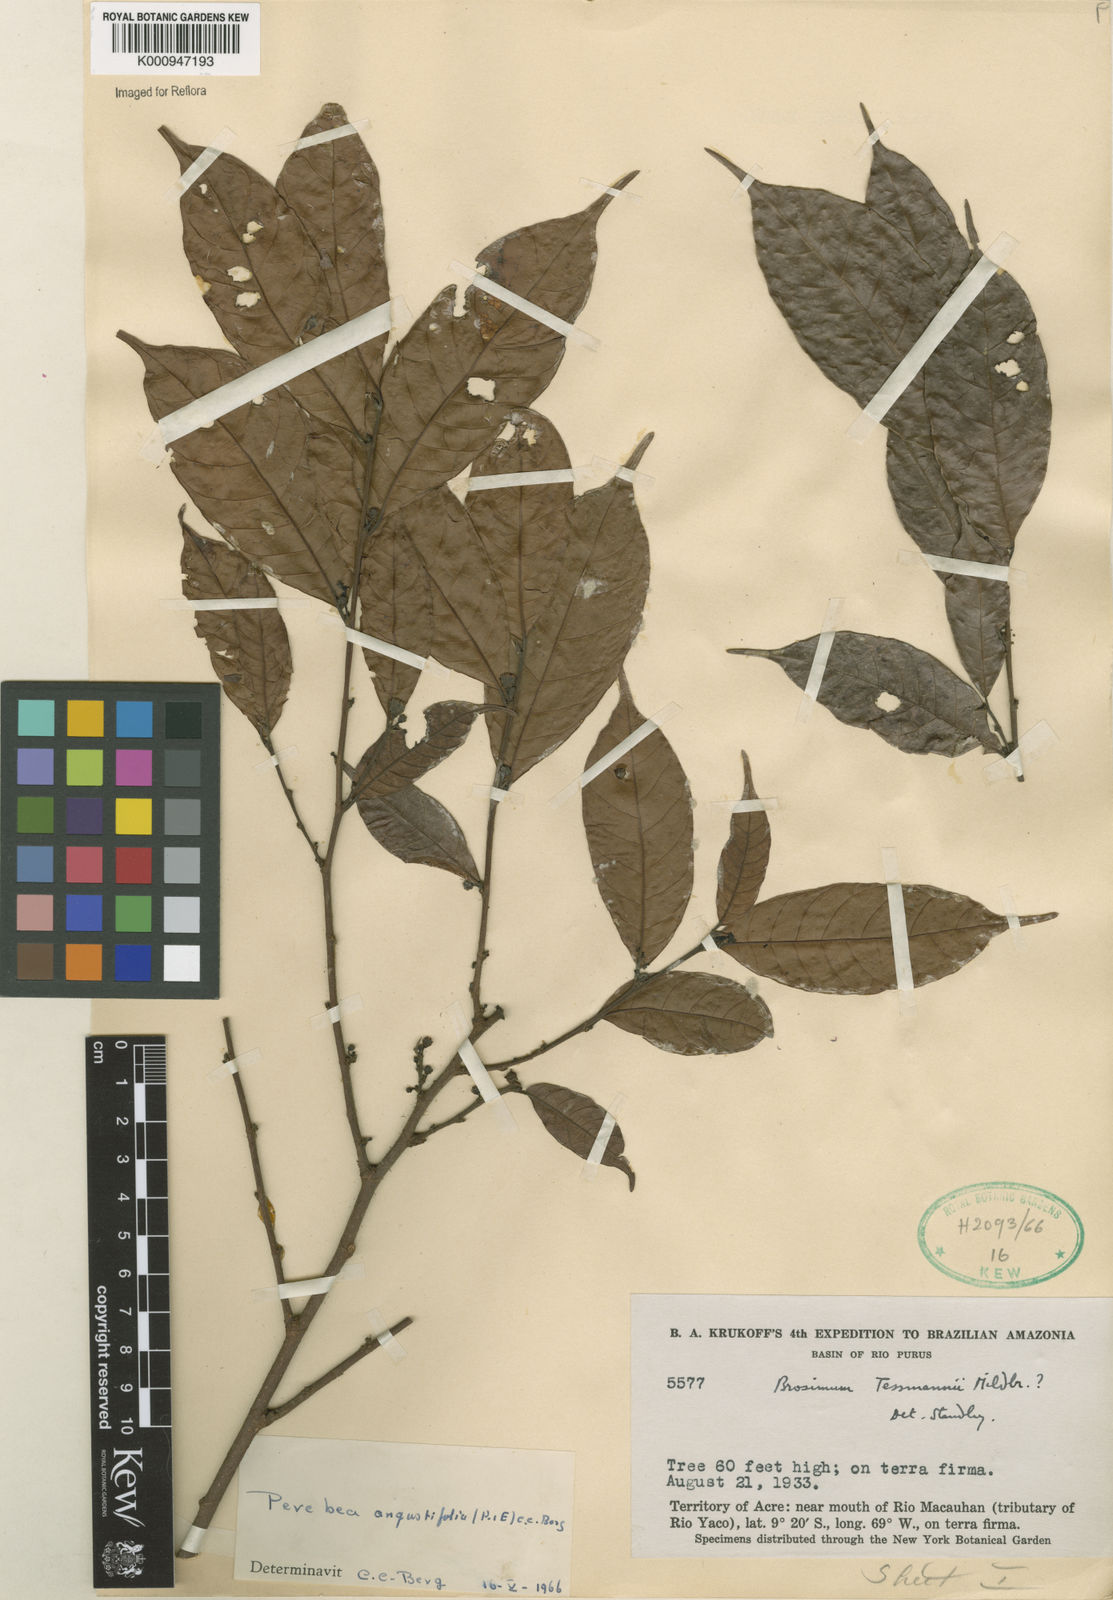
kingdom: Plantae
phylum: Tracheophyta
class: Magnoliopsida
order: Rosales
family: Moraceae
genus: Perebea
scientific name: Perebea angustifolia
